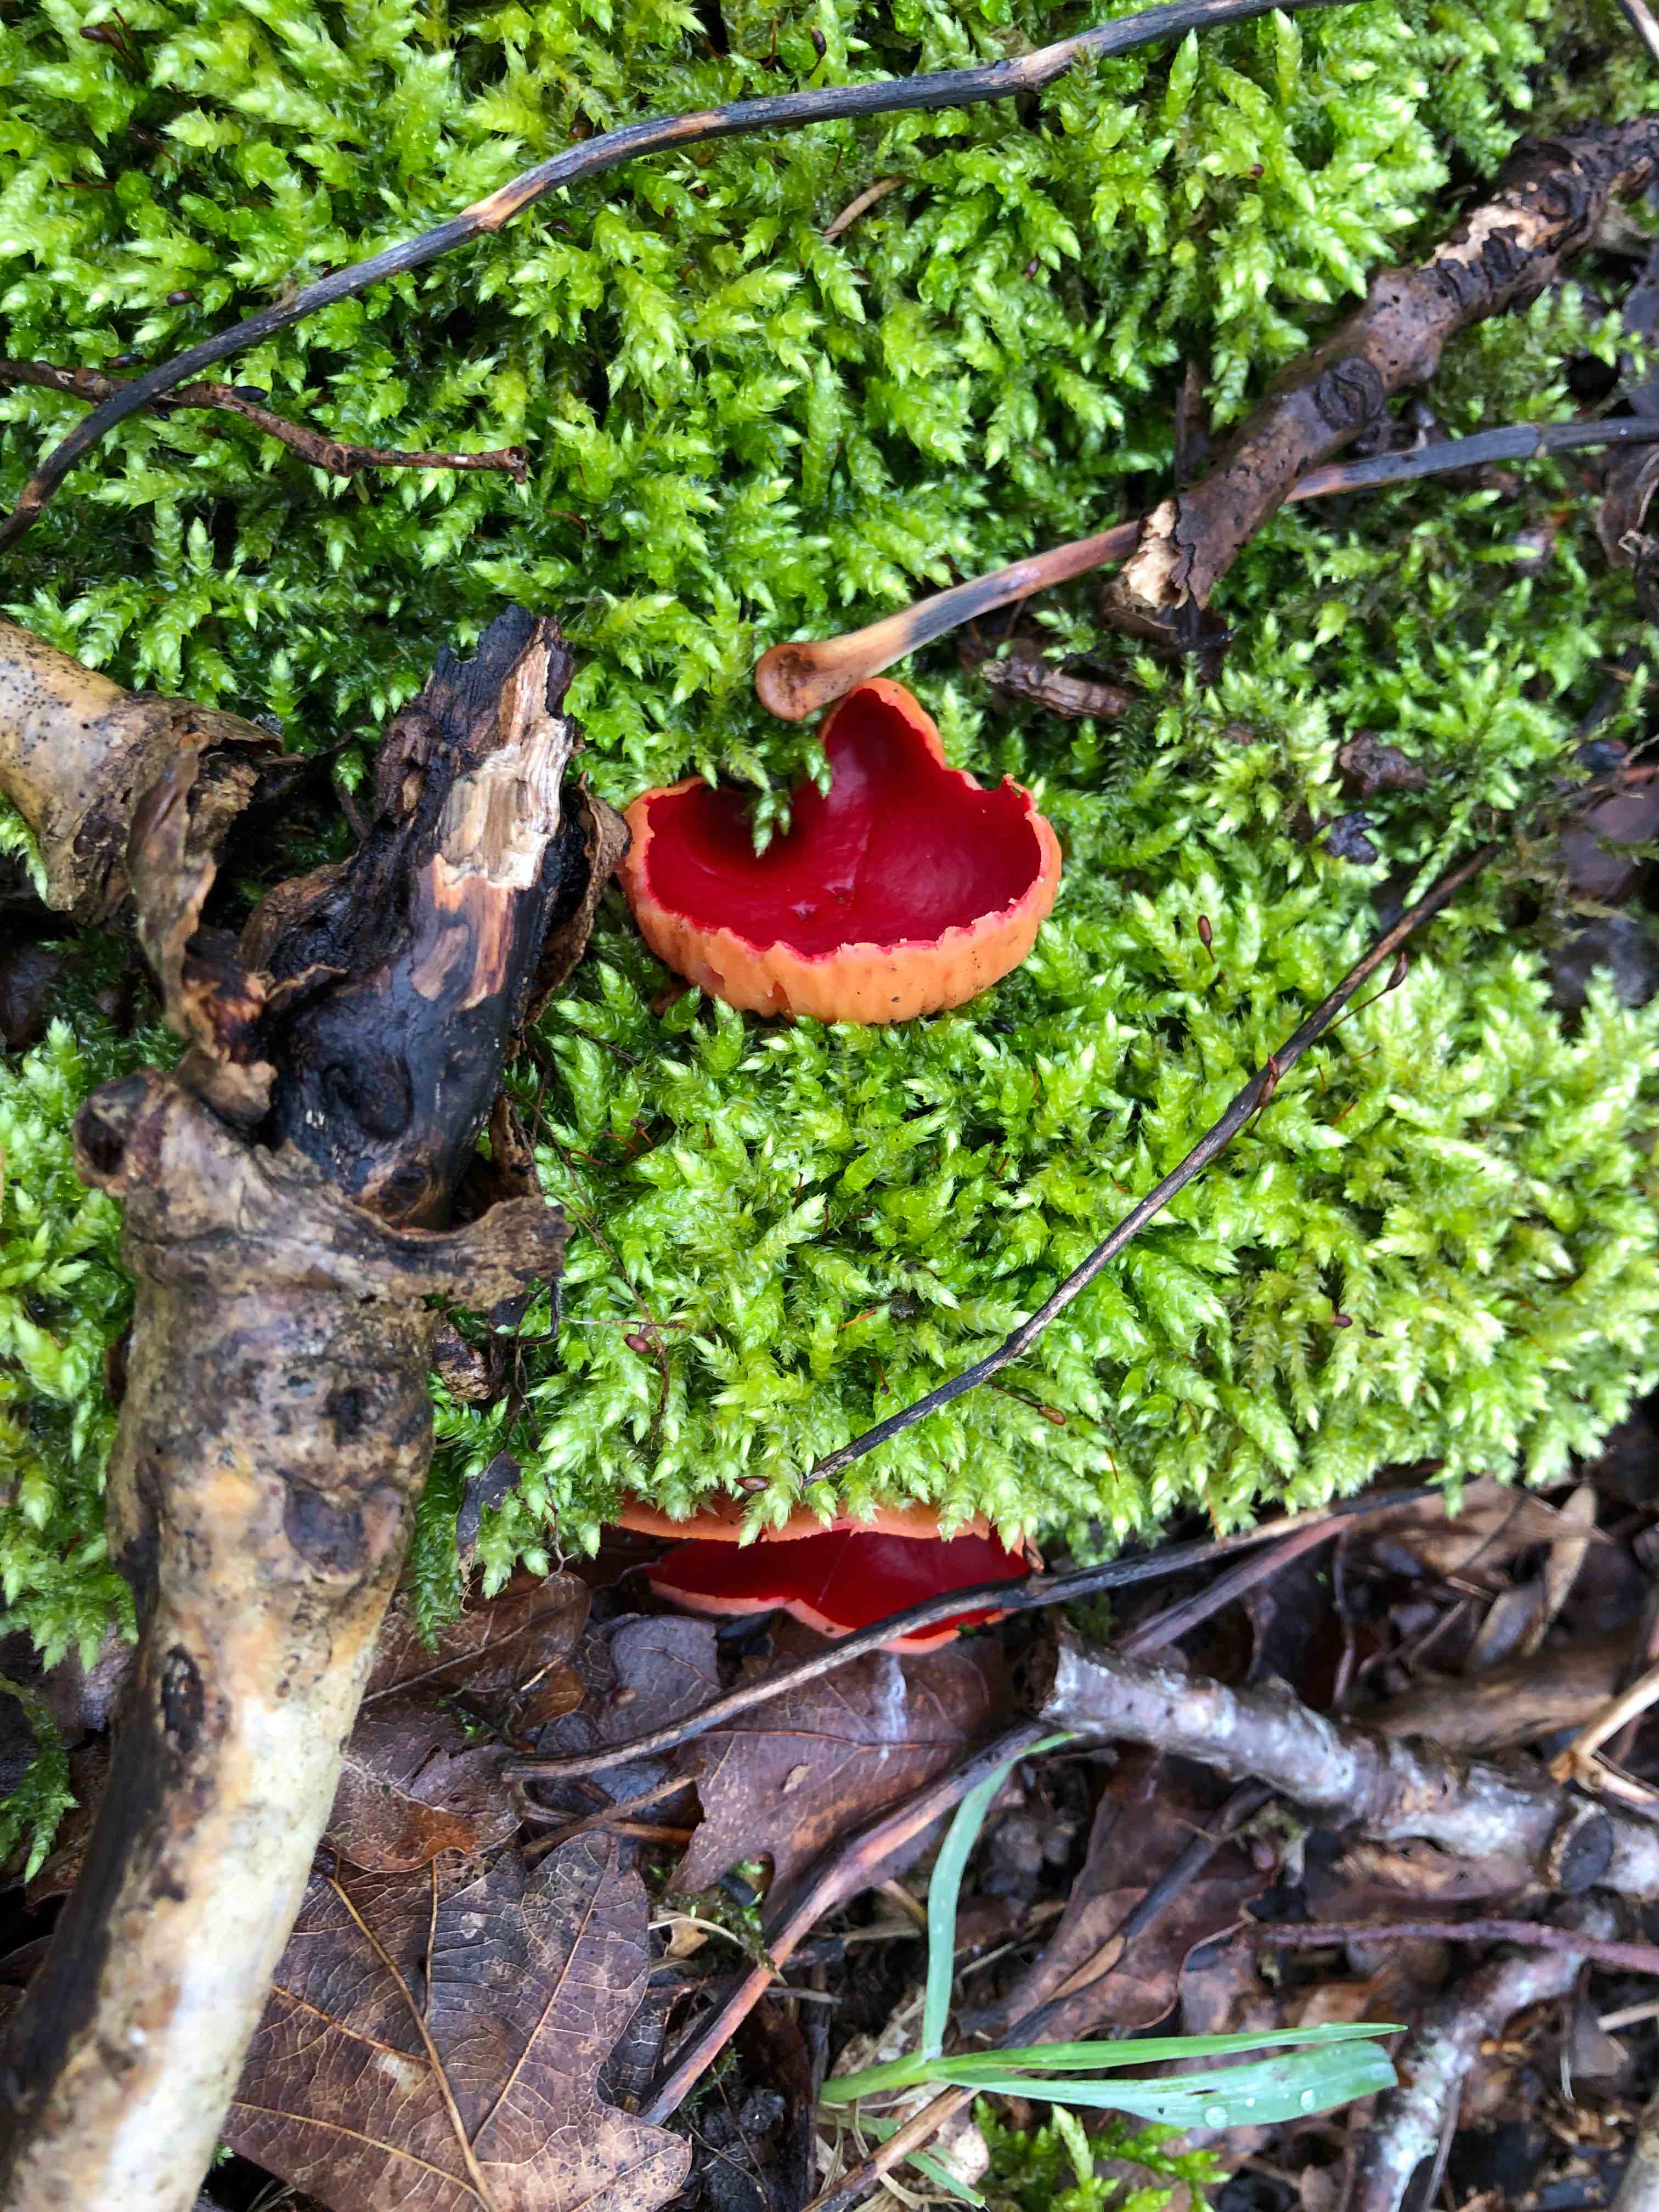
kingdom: Fungi
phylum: Ascomycota
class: Pezizomycetes
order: Pezizales
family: Sarcoscyphaceae
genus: Sarcoscypha
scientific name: Sarcoscypha austriaca
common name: krølhåret pragtbæger
